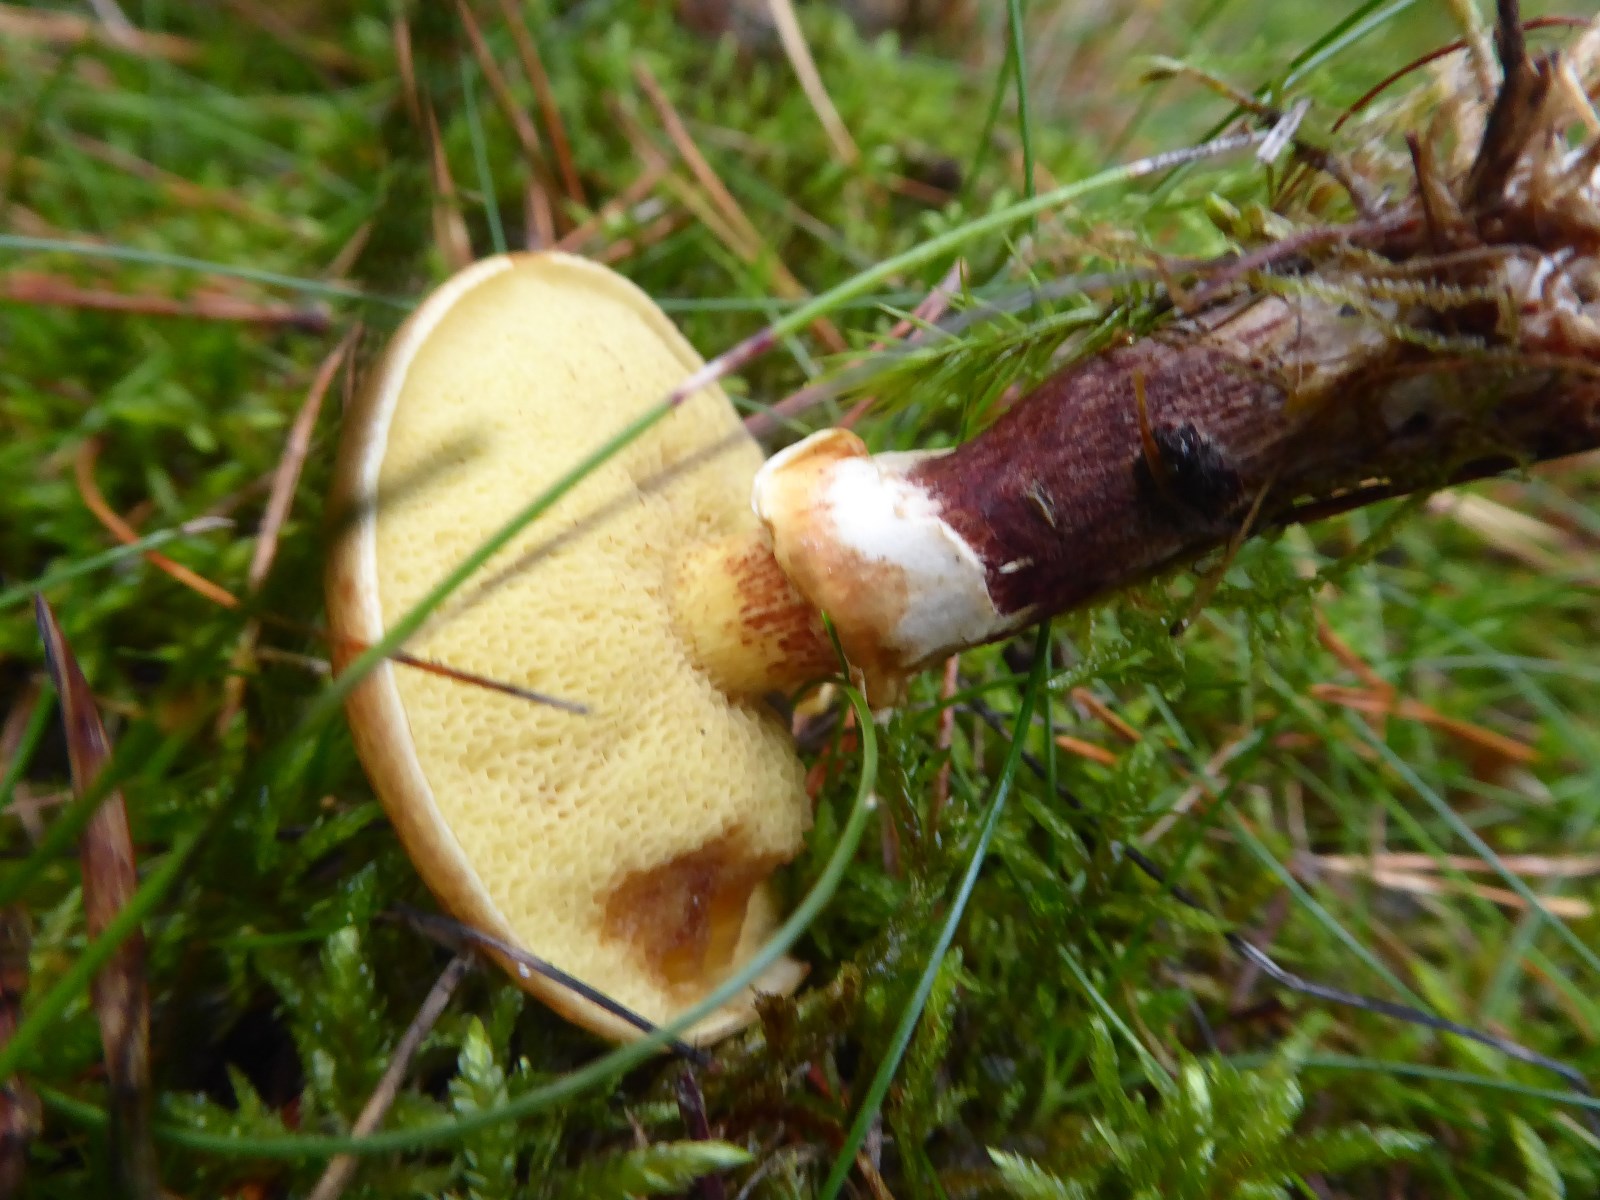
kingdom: Fungi
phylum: Basidiomycota
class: Agaricomycetes
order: Boletales
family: Suillaceae
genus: Suillus
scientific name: Suillus grevillei
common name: lærke-slimrørhat
